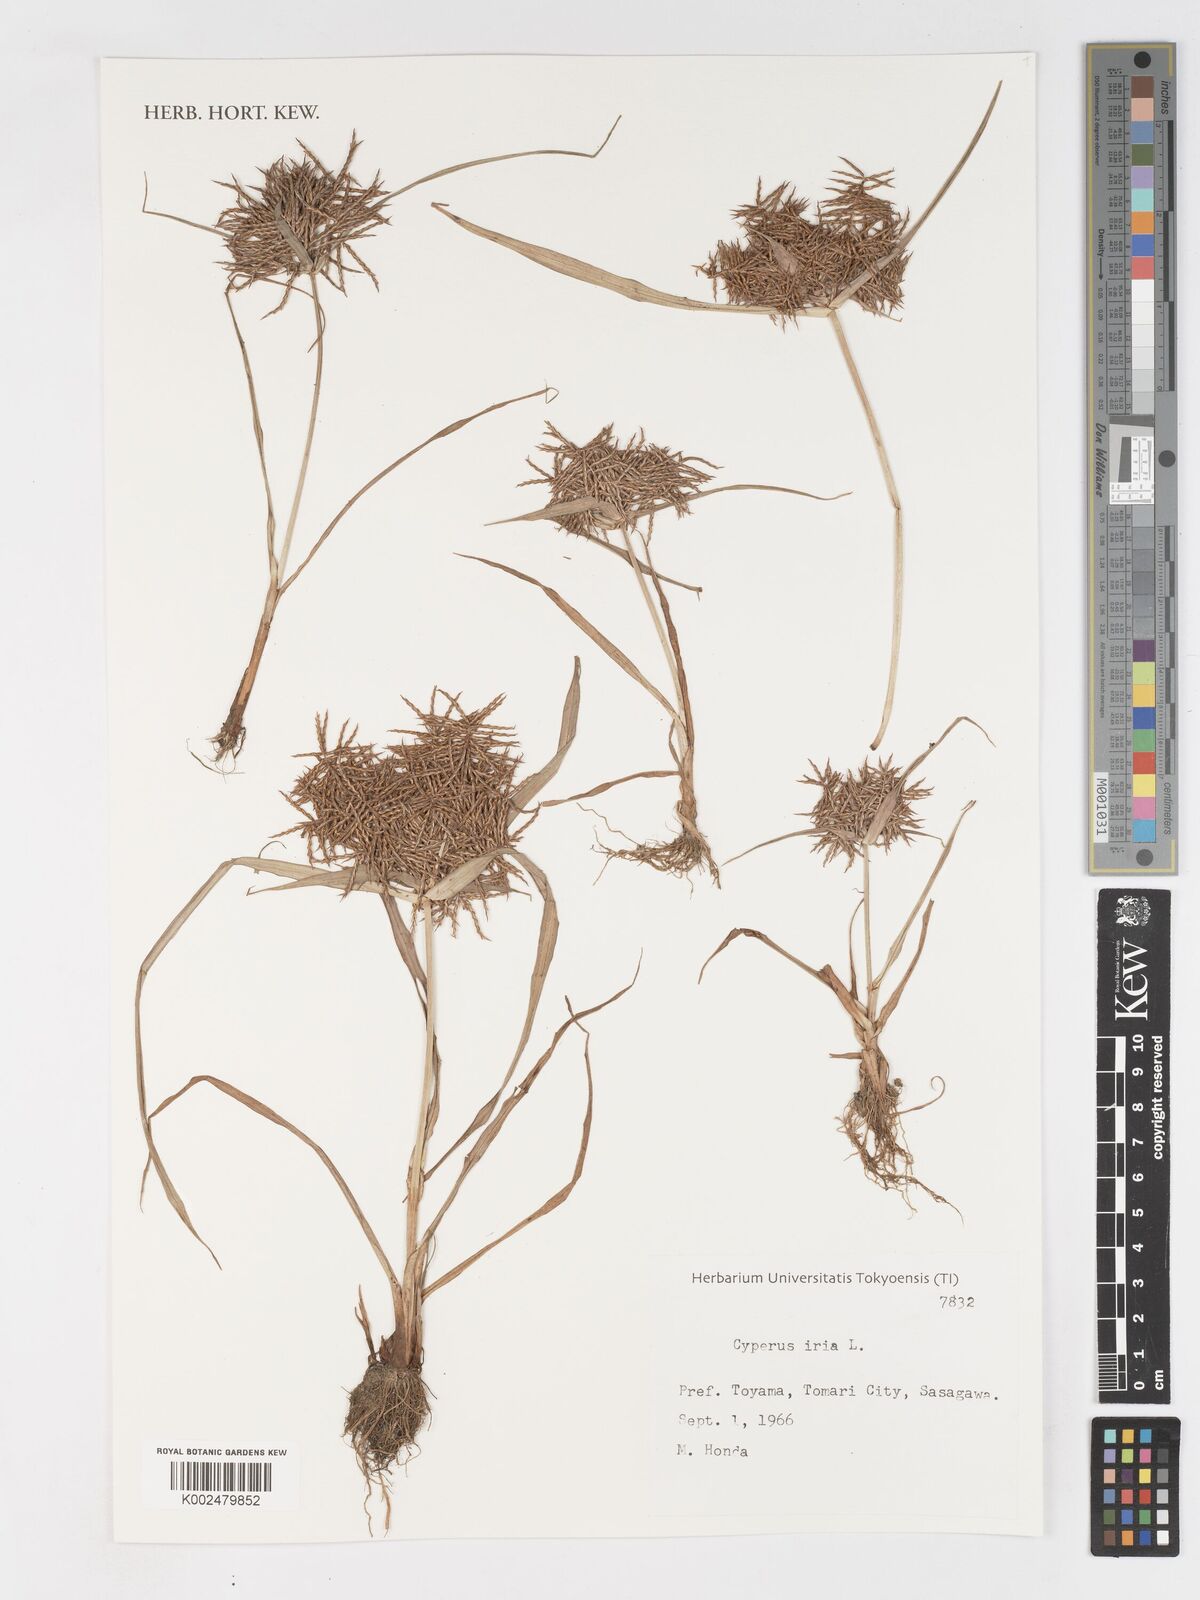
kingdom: Plantae
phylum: Tracheophyta
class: Liliopsida
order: Poales
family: Cyperaceae
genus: Cyperus
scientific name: Cyperus iria
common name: Ricefield flatsedge
